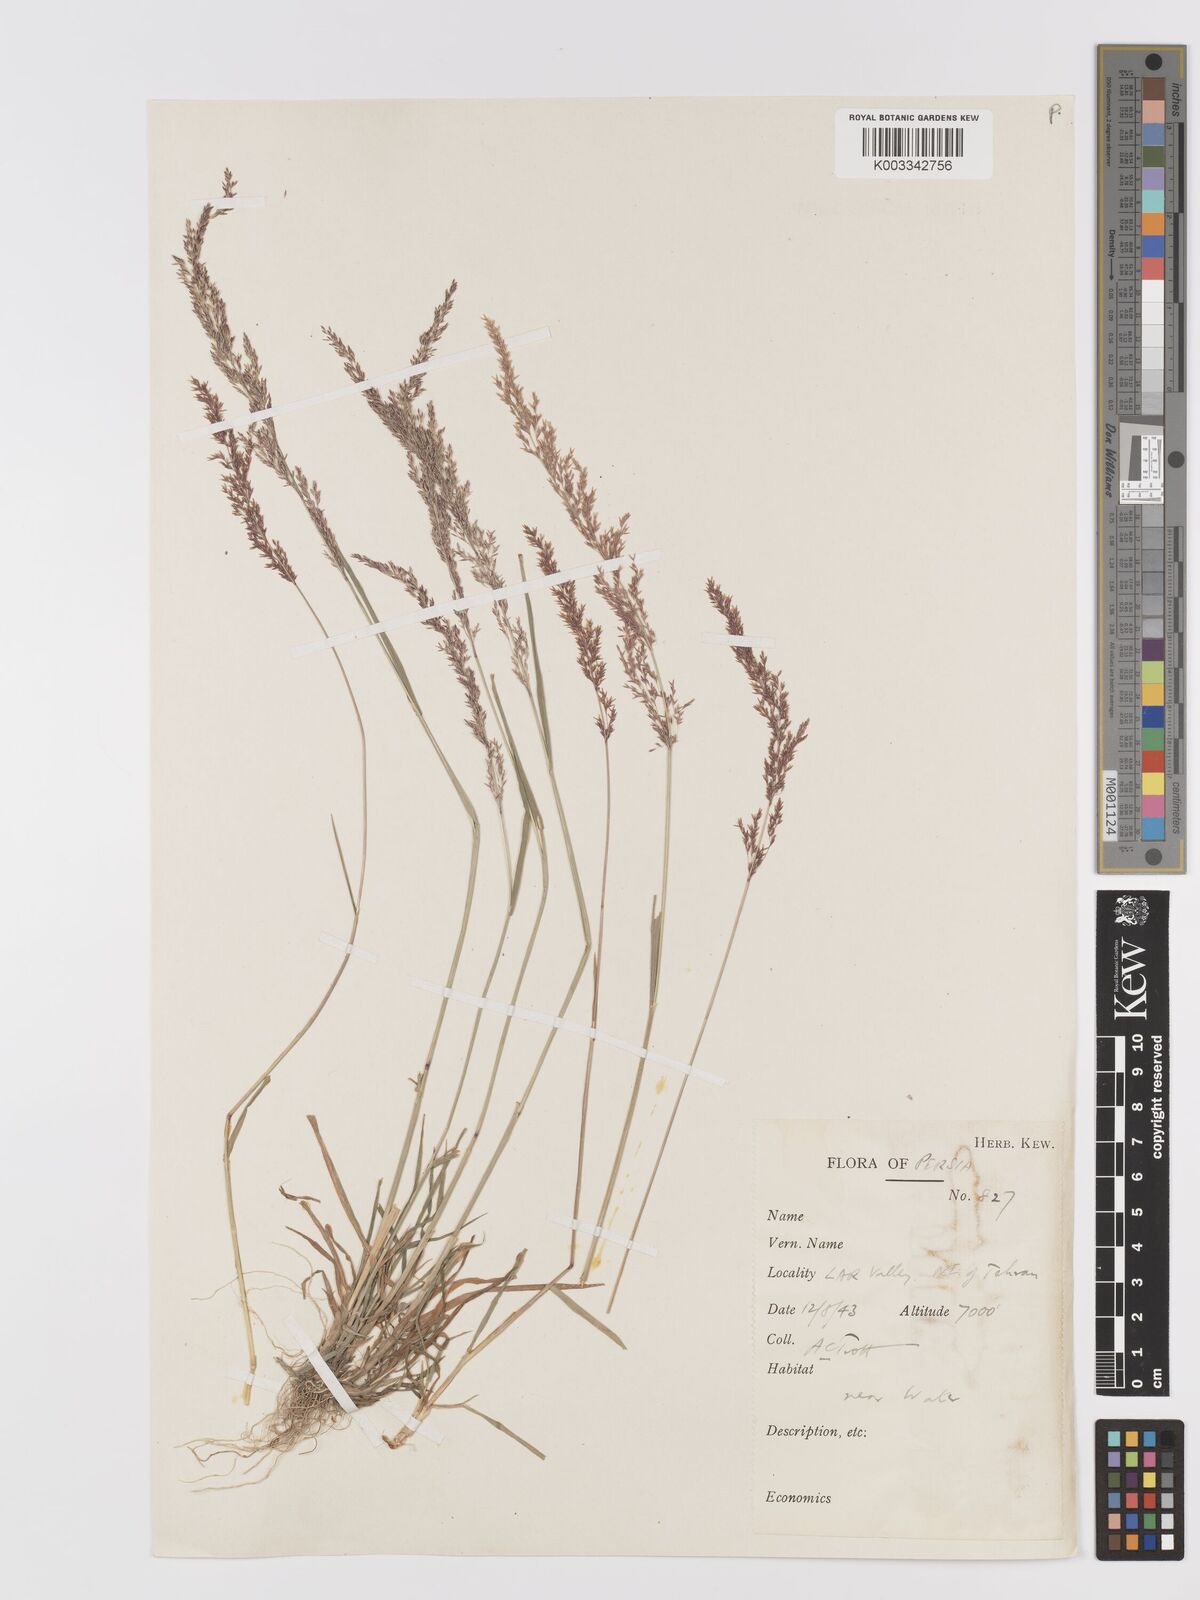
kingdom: Plantae
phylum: Tracheophyta
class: Liliopsida
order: Poales
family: Poaceae
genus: Agrostis
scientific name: Agrostis stolonifera
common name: Creeping bentgrass
